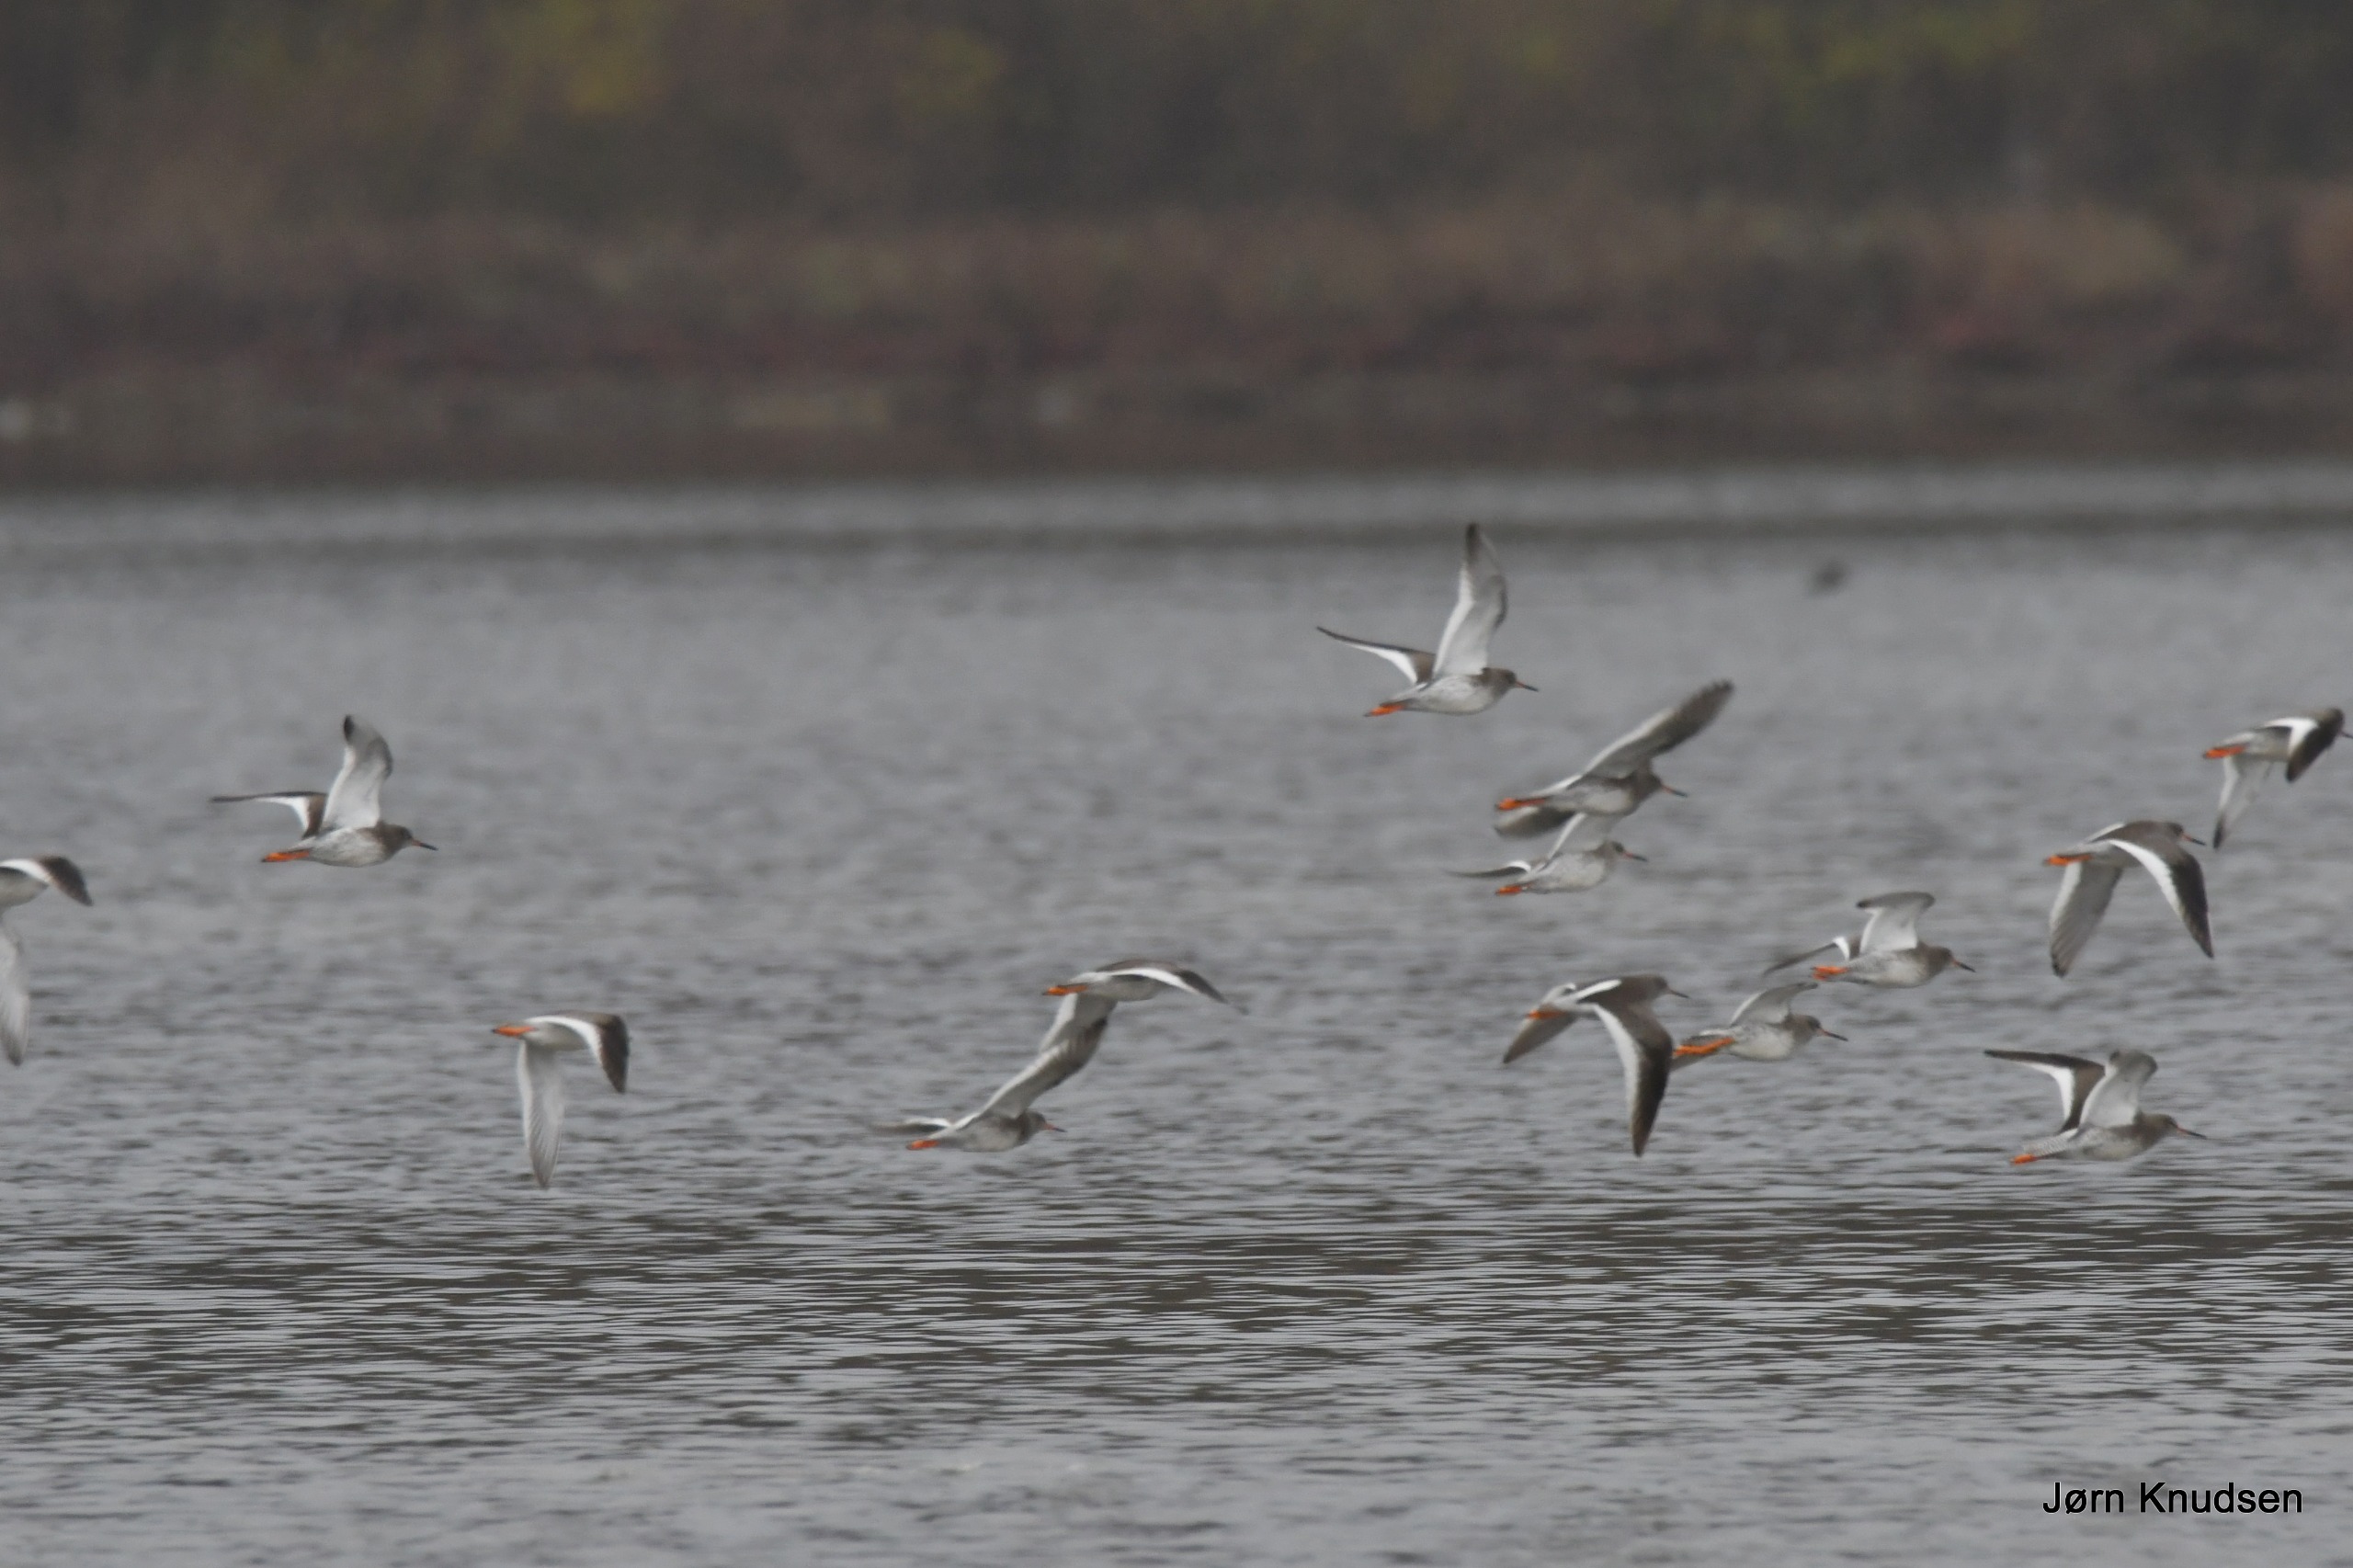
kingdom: Animalia
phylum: Chordata
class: Aves
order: Charadriiformes
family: Scolopacidae
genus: Tringa
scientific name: Tringa totanus
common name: Rødben
